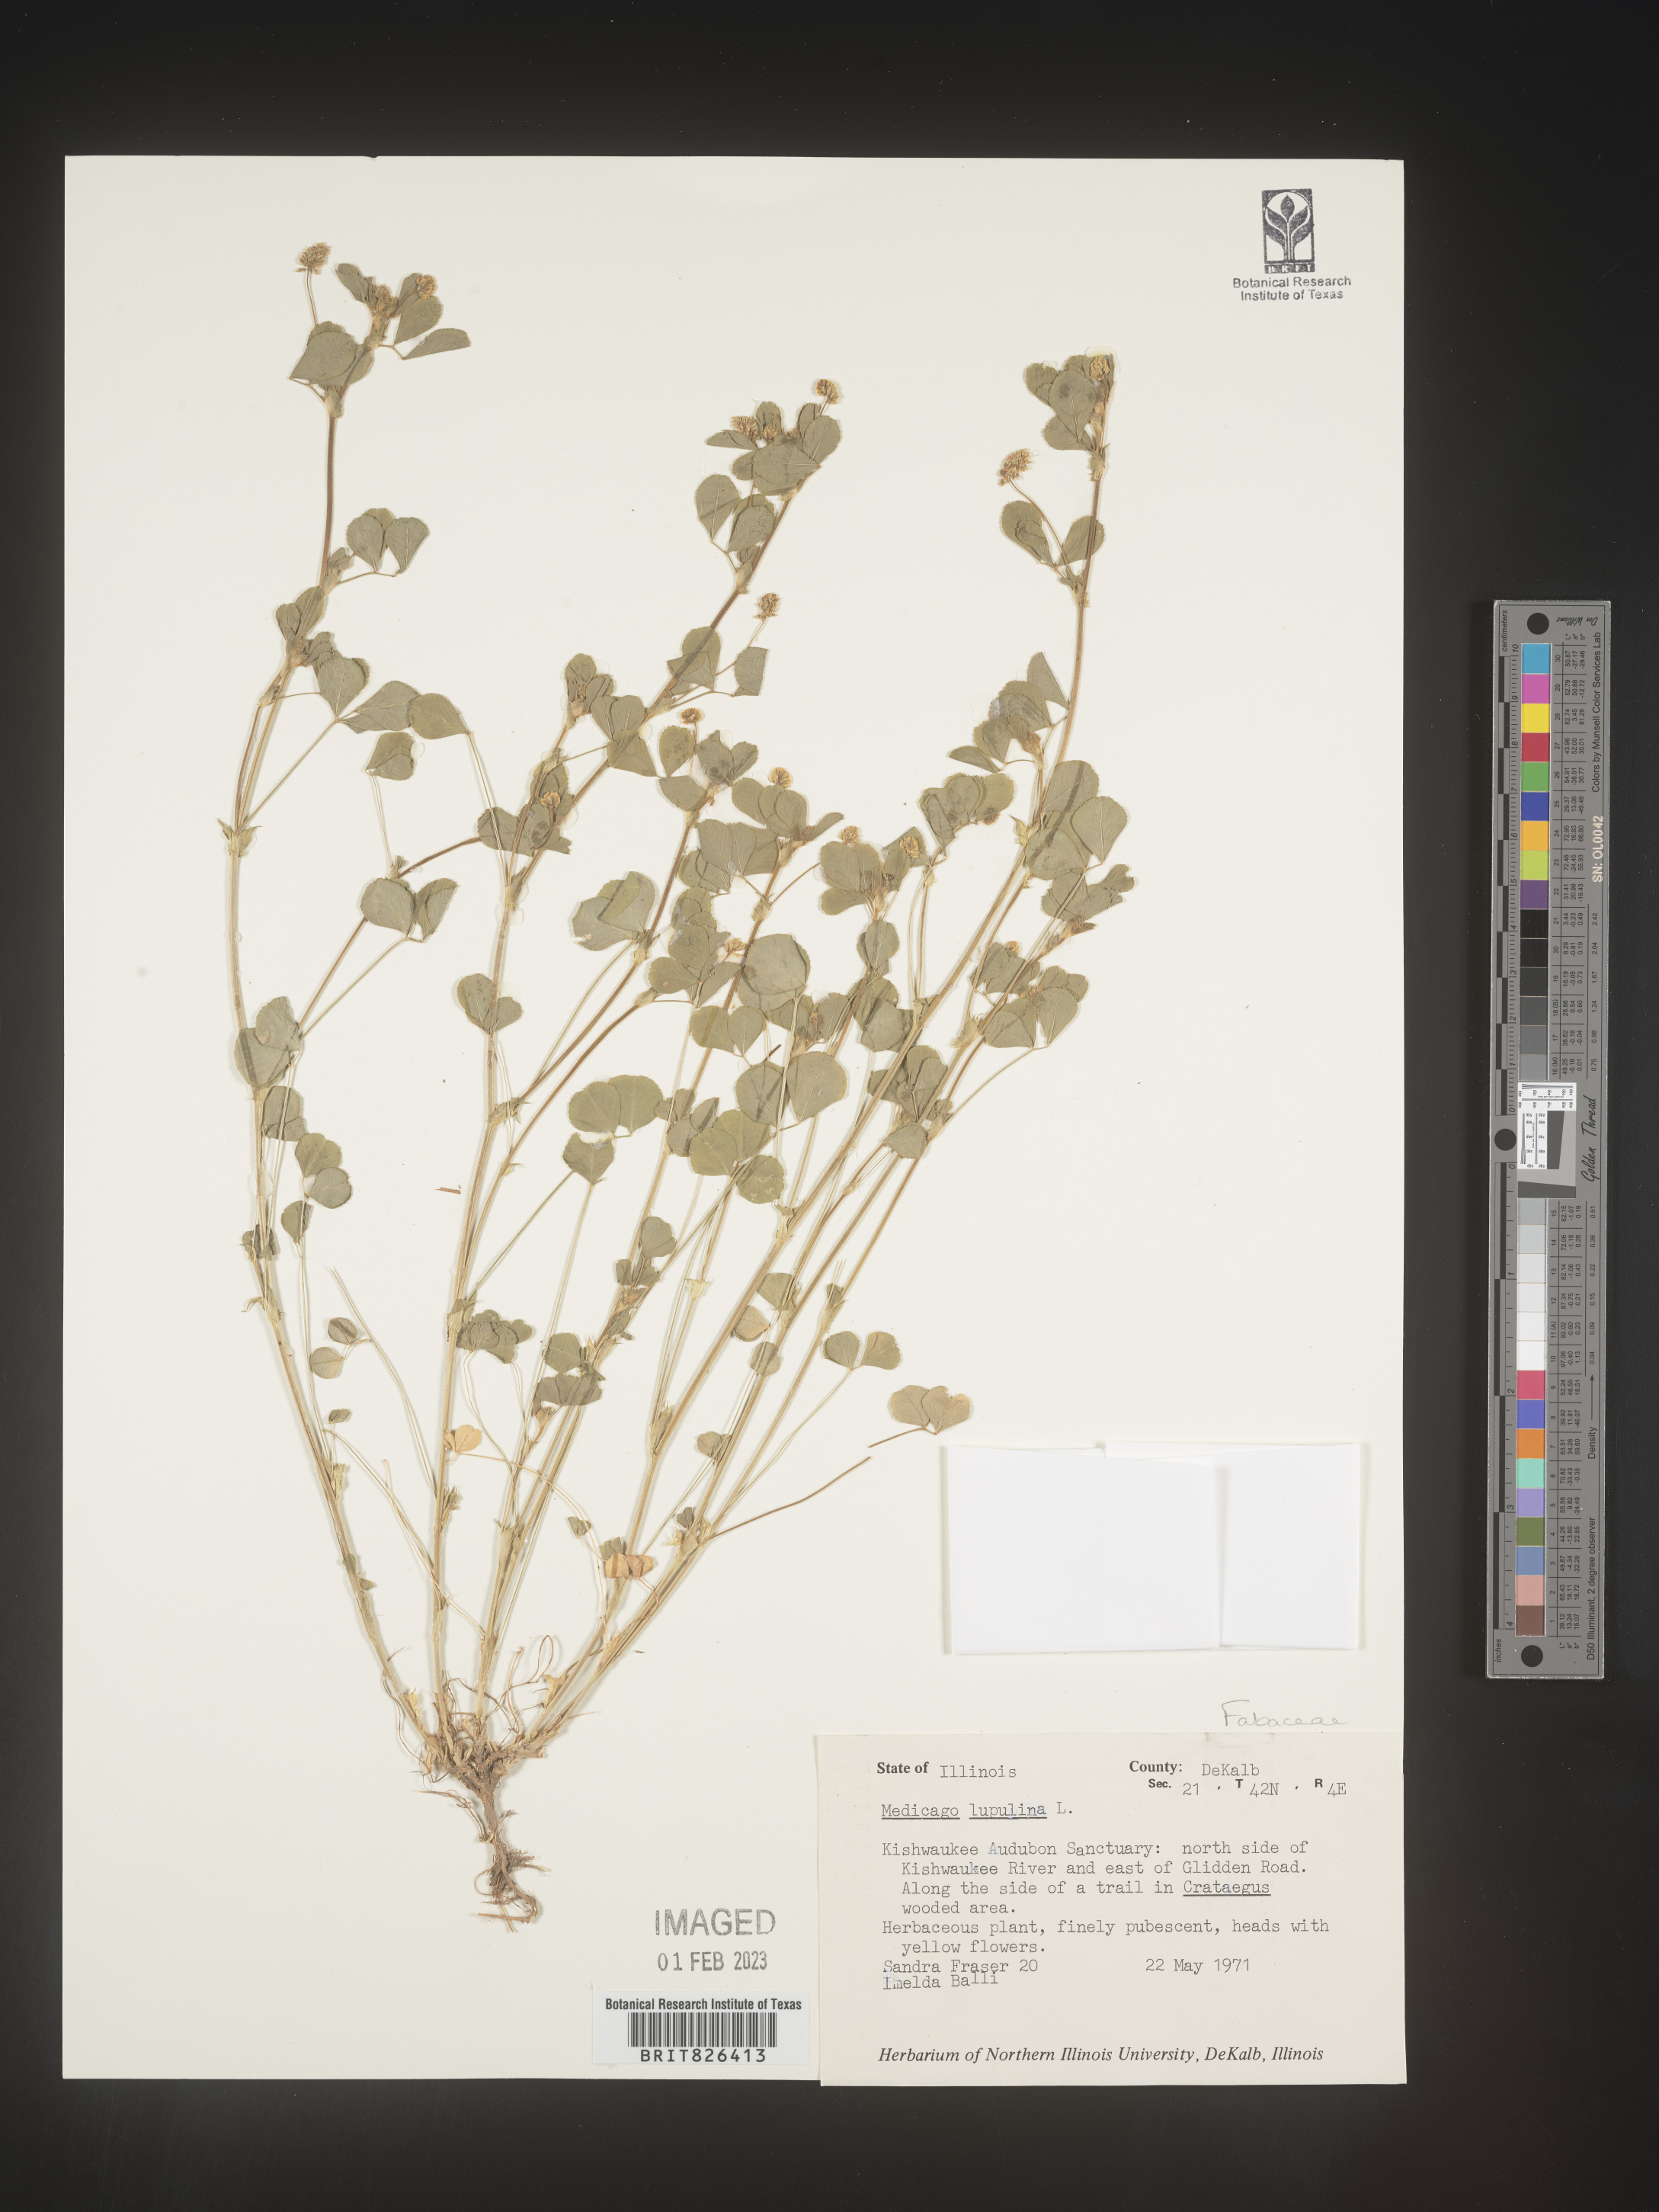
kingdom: Plantae
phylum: Tracheophyta
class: Magnoliopsida
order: Fabales
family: Fabaceae
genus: Medicago
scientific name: Medicago lupulina
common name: Black medick
